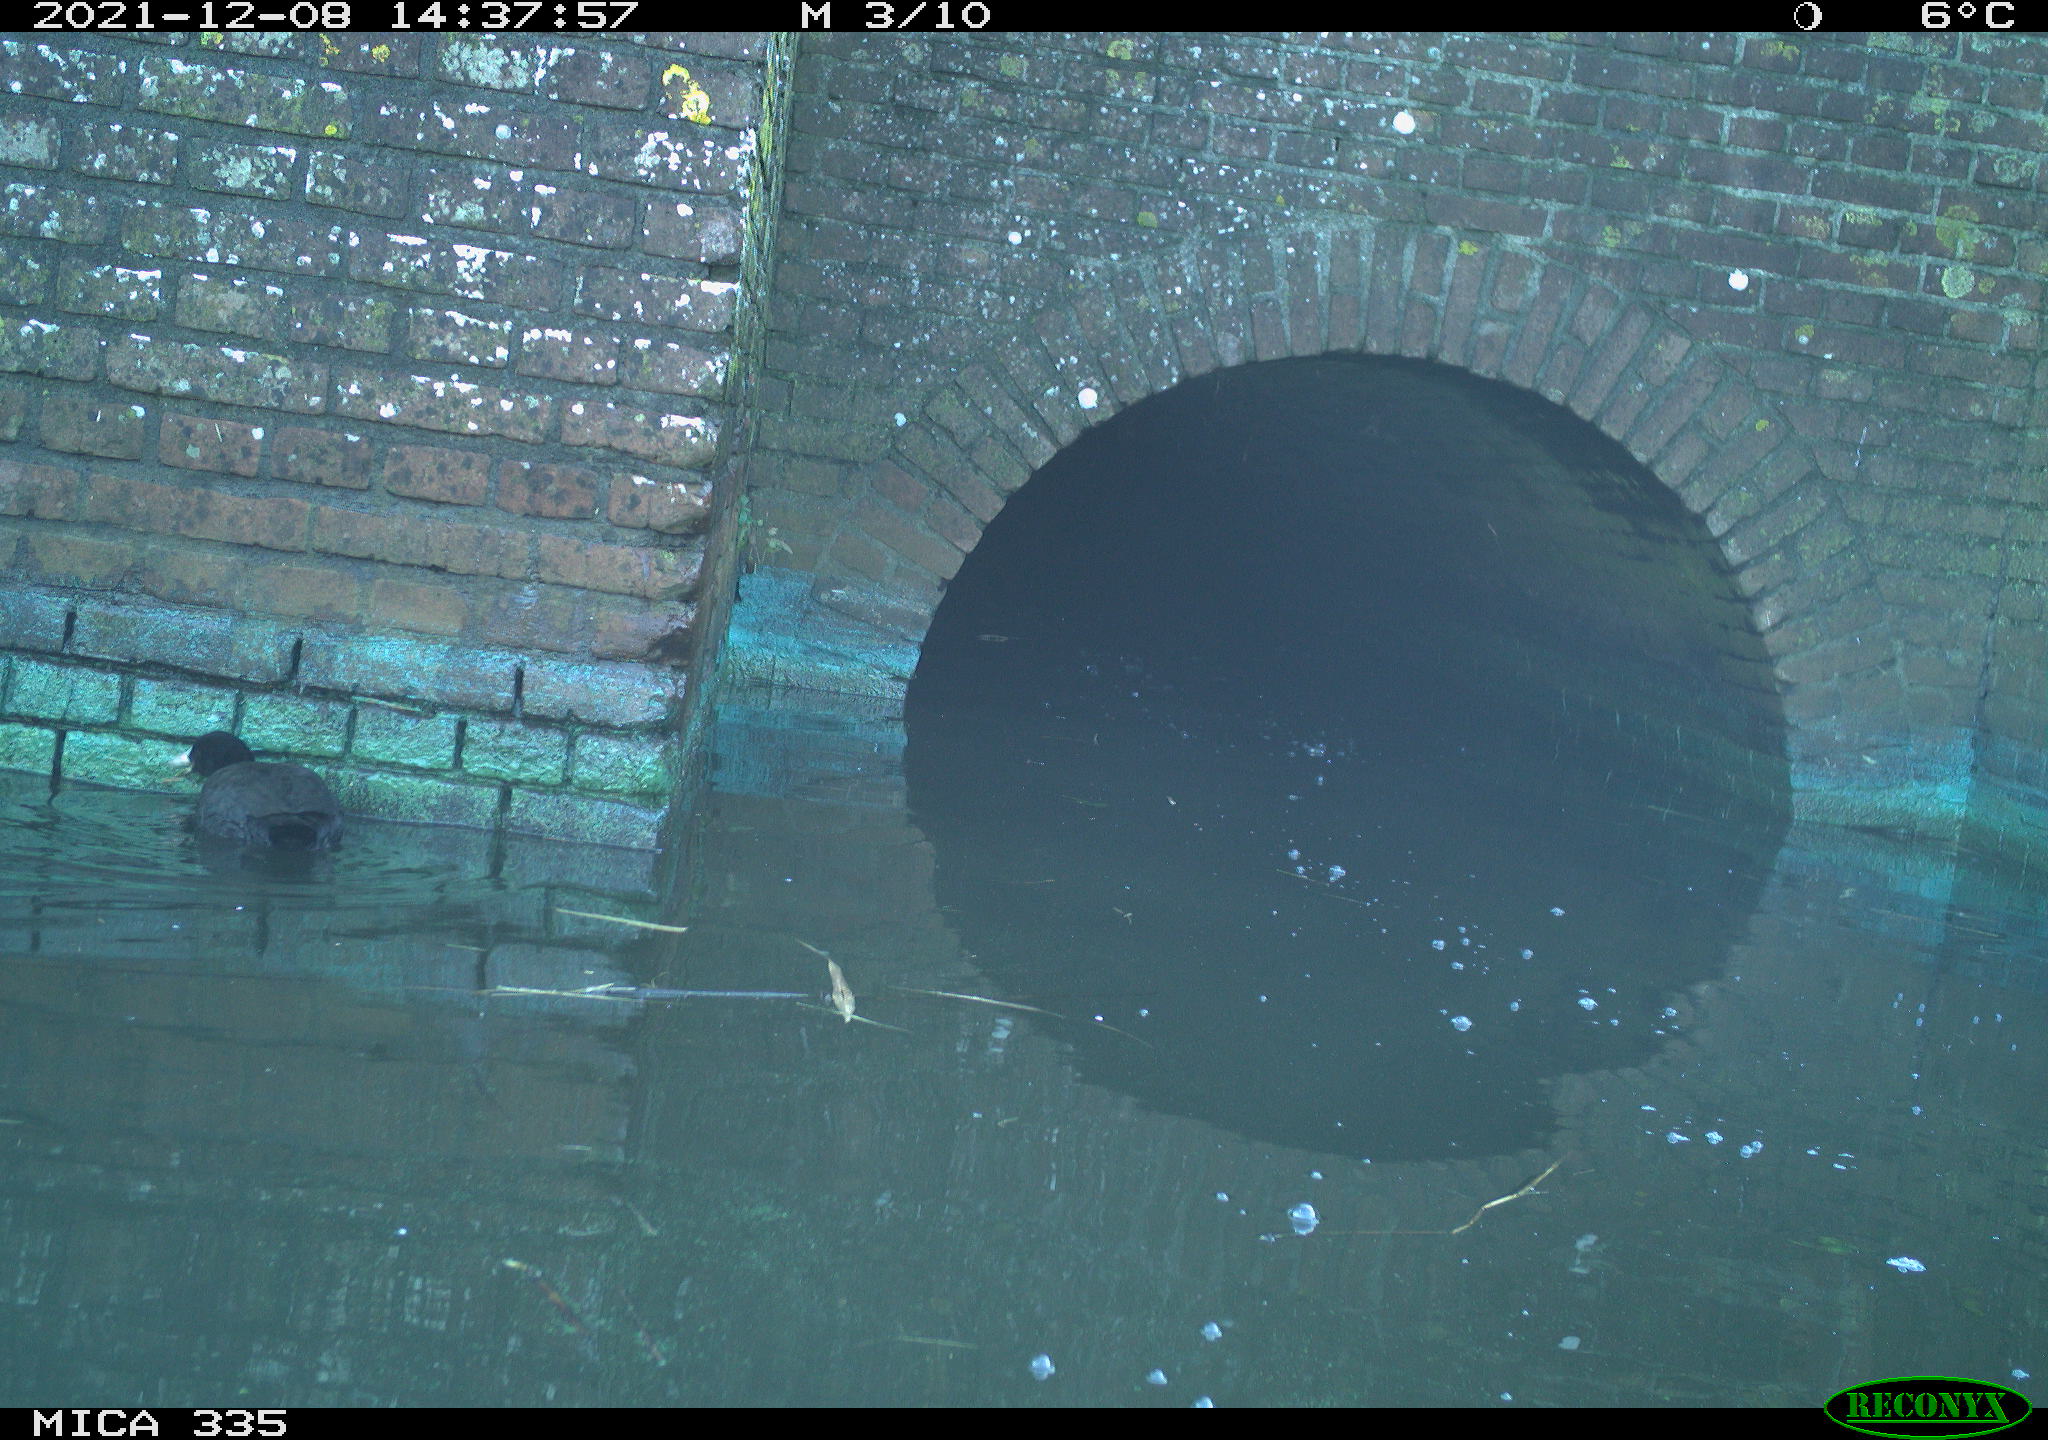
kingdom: Animalia
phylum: Chordata
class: Aves
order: Gruiformes
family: Rallidae
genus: Fulica
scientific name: Fulica atra
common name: Eurasian coot
